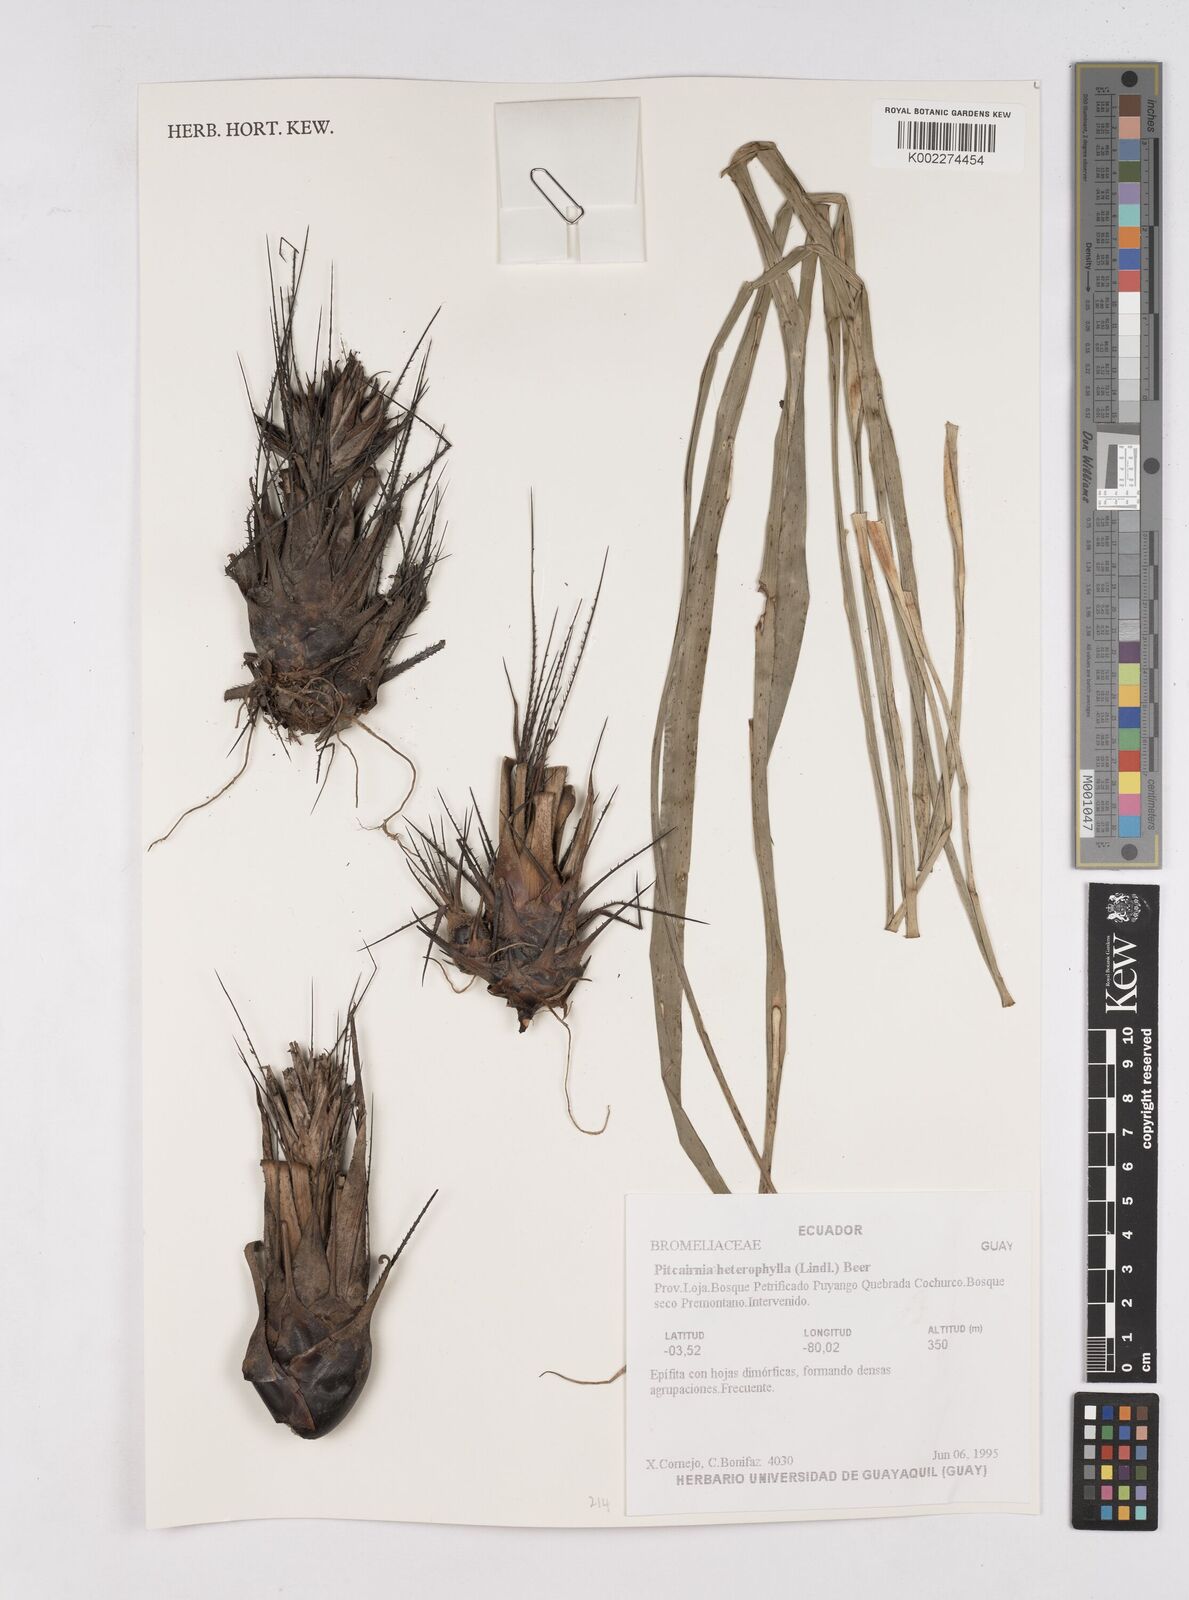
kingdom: Plantae
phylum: Tracheophyta
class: Liliopsida
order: Poales
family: Bromeliaceae
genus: Pitcairnia
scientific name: Pitcairnia heterophylla
